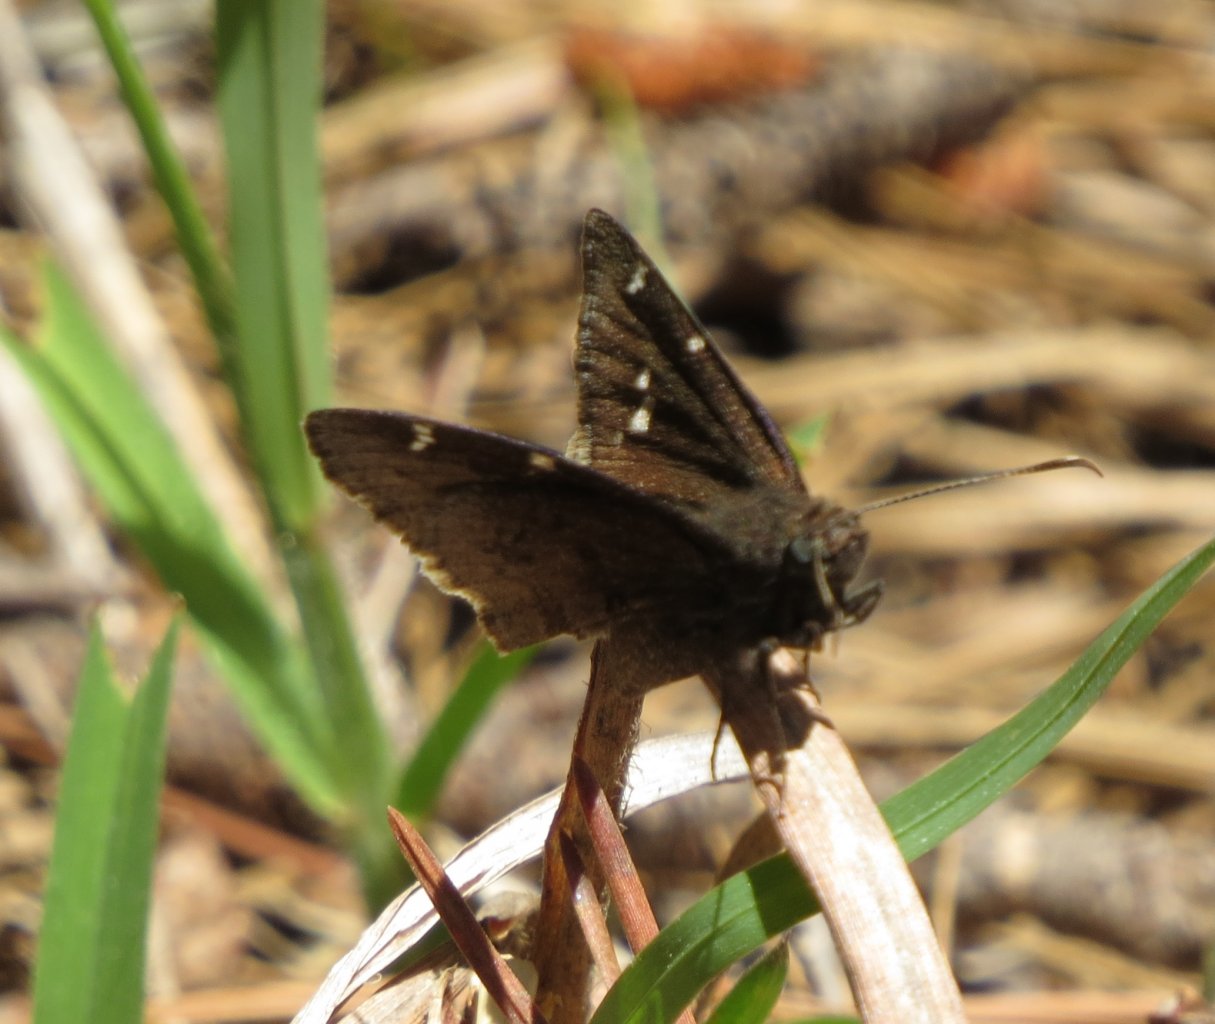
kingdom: Animalia
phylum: Arthropoda
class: Insecta
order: Lepidoptera
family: Hesperiidae
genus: Autochton
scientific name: Autochton
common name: Northern Cloudywing
